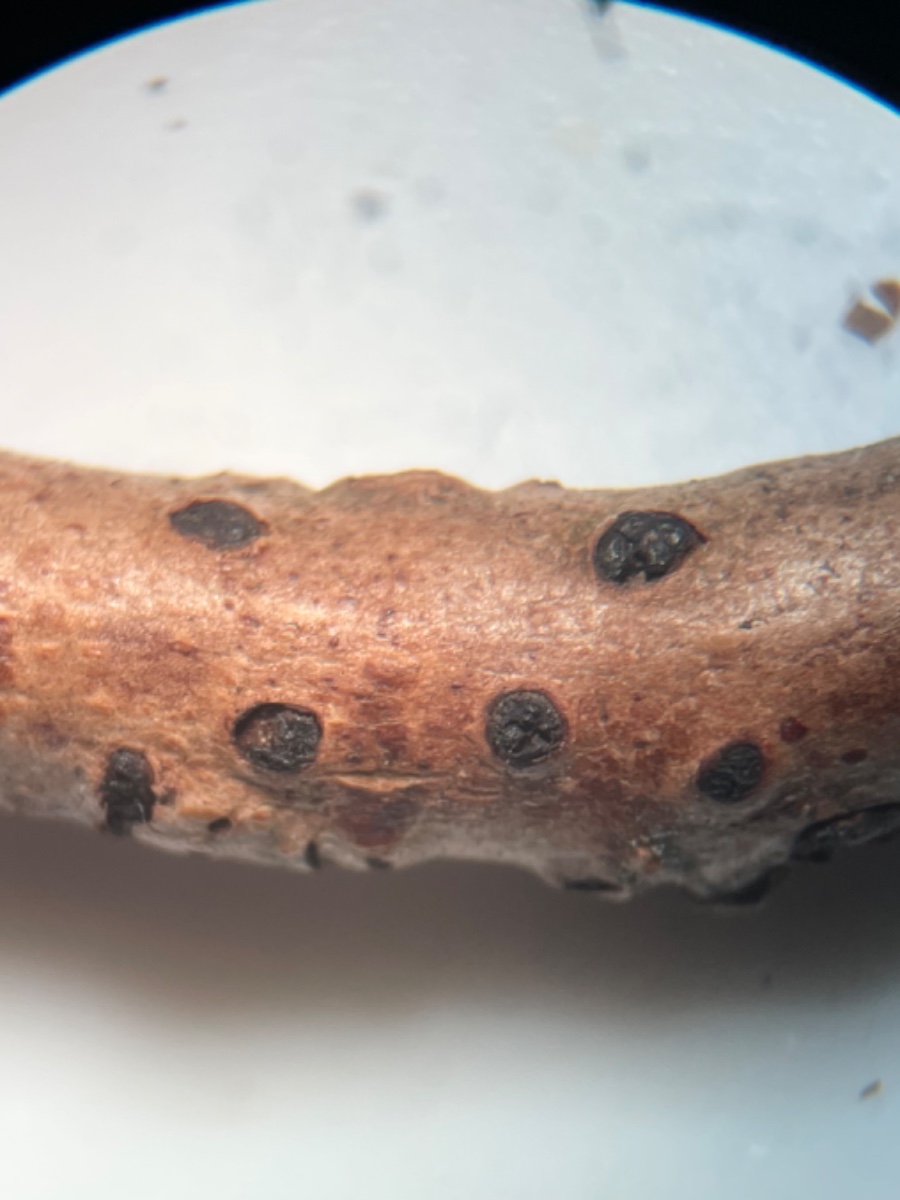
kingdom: Fungi
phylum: Ascomycota
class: Dothideomycetes
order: Pleosporales
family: Fenestellaceae
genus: Fenestella
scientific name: Fenestella media
